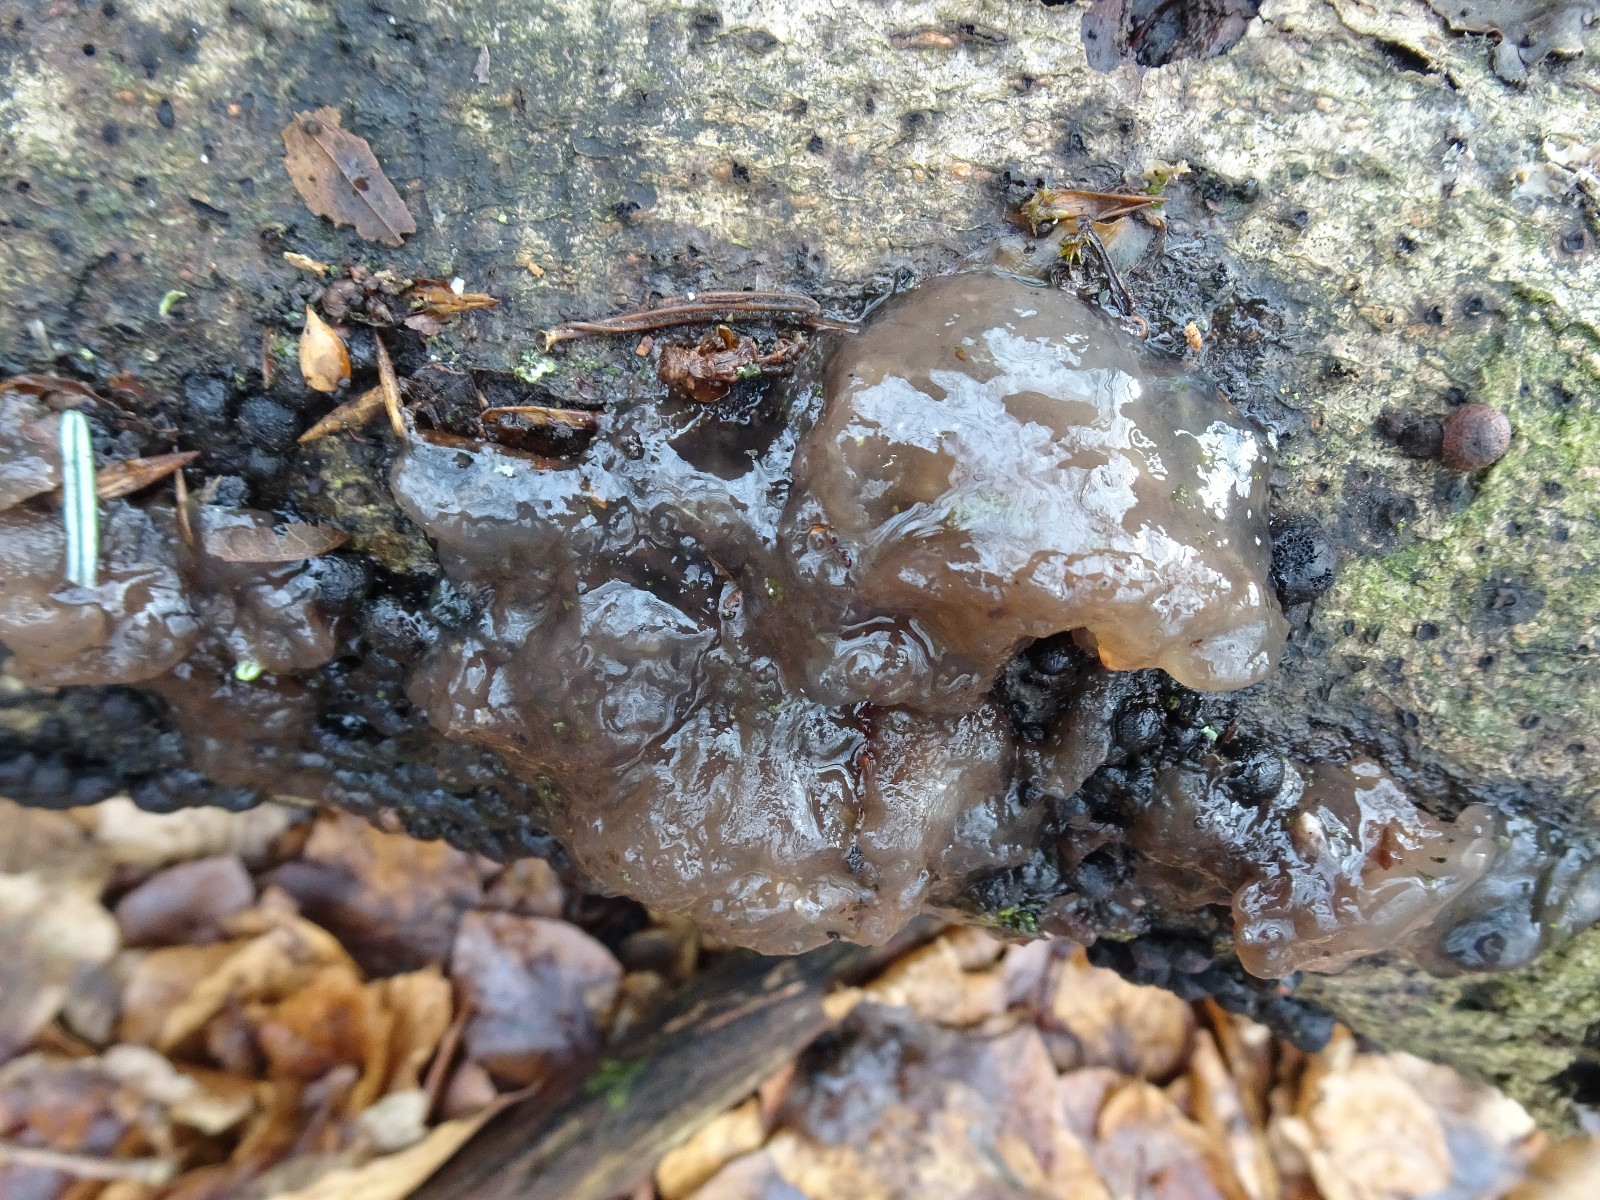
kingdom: Fungi
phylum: Ascomycota
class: Leotiomycetes
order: Helotiales
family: Gelatinodiscaceae
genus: Neobulgaria
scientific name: Neobulgaria pura
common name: bleg bævreskive
